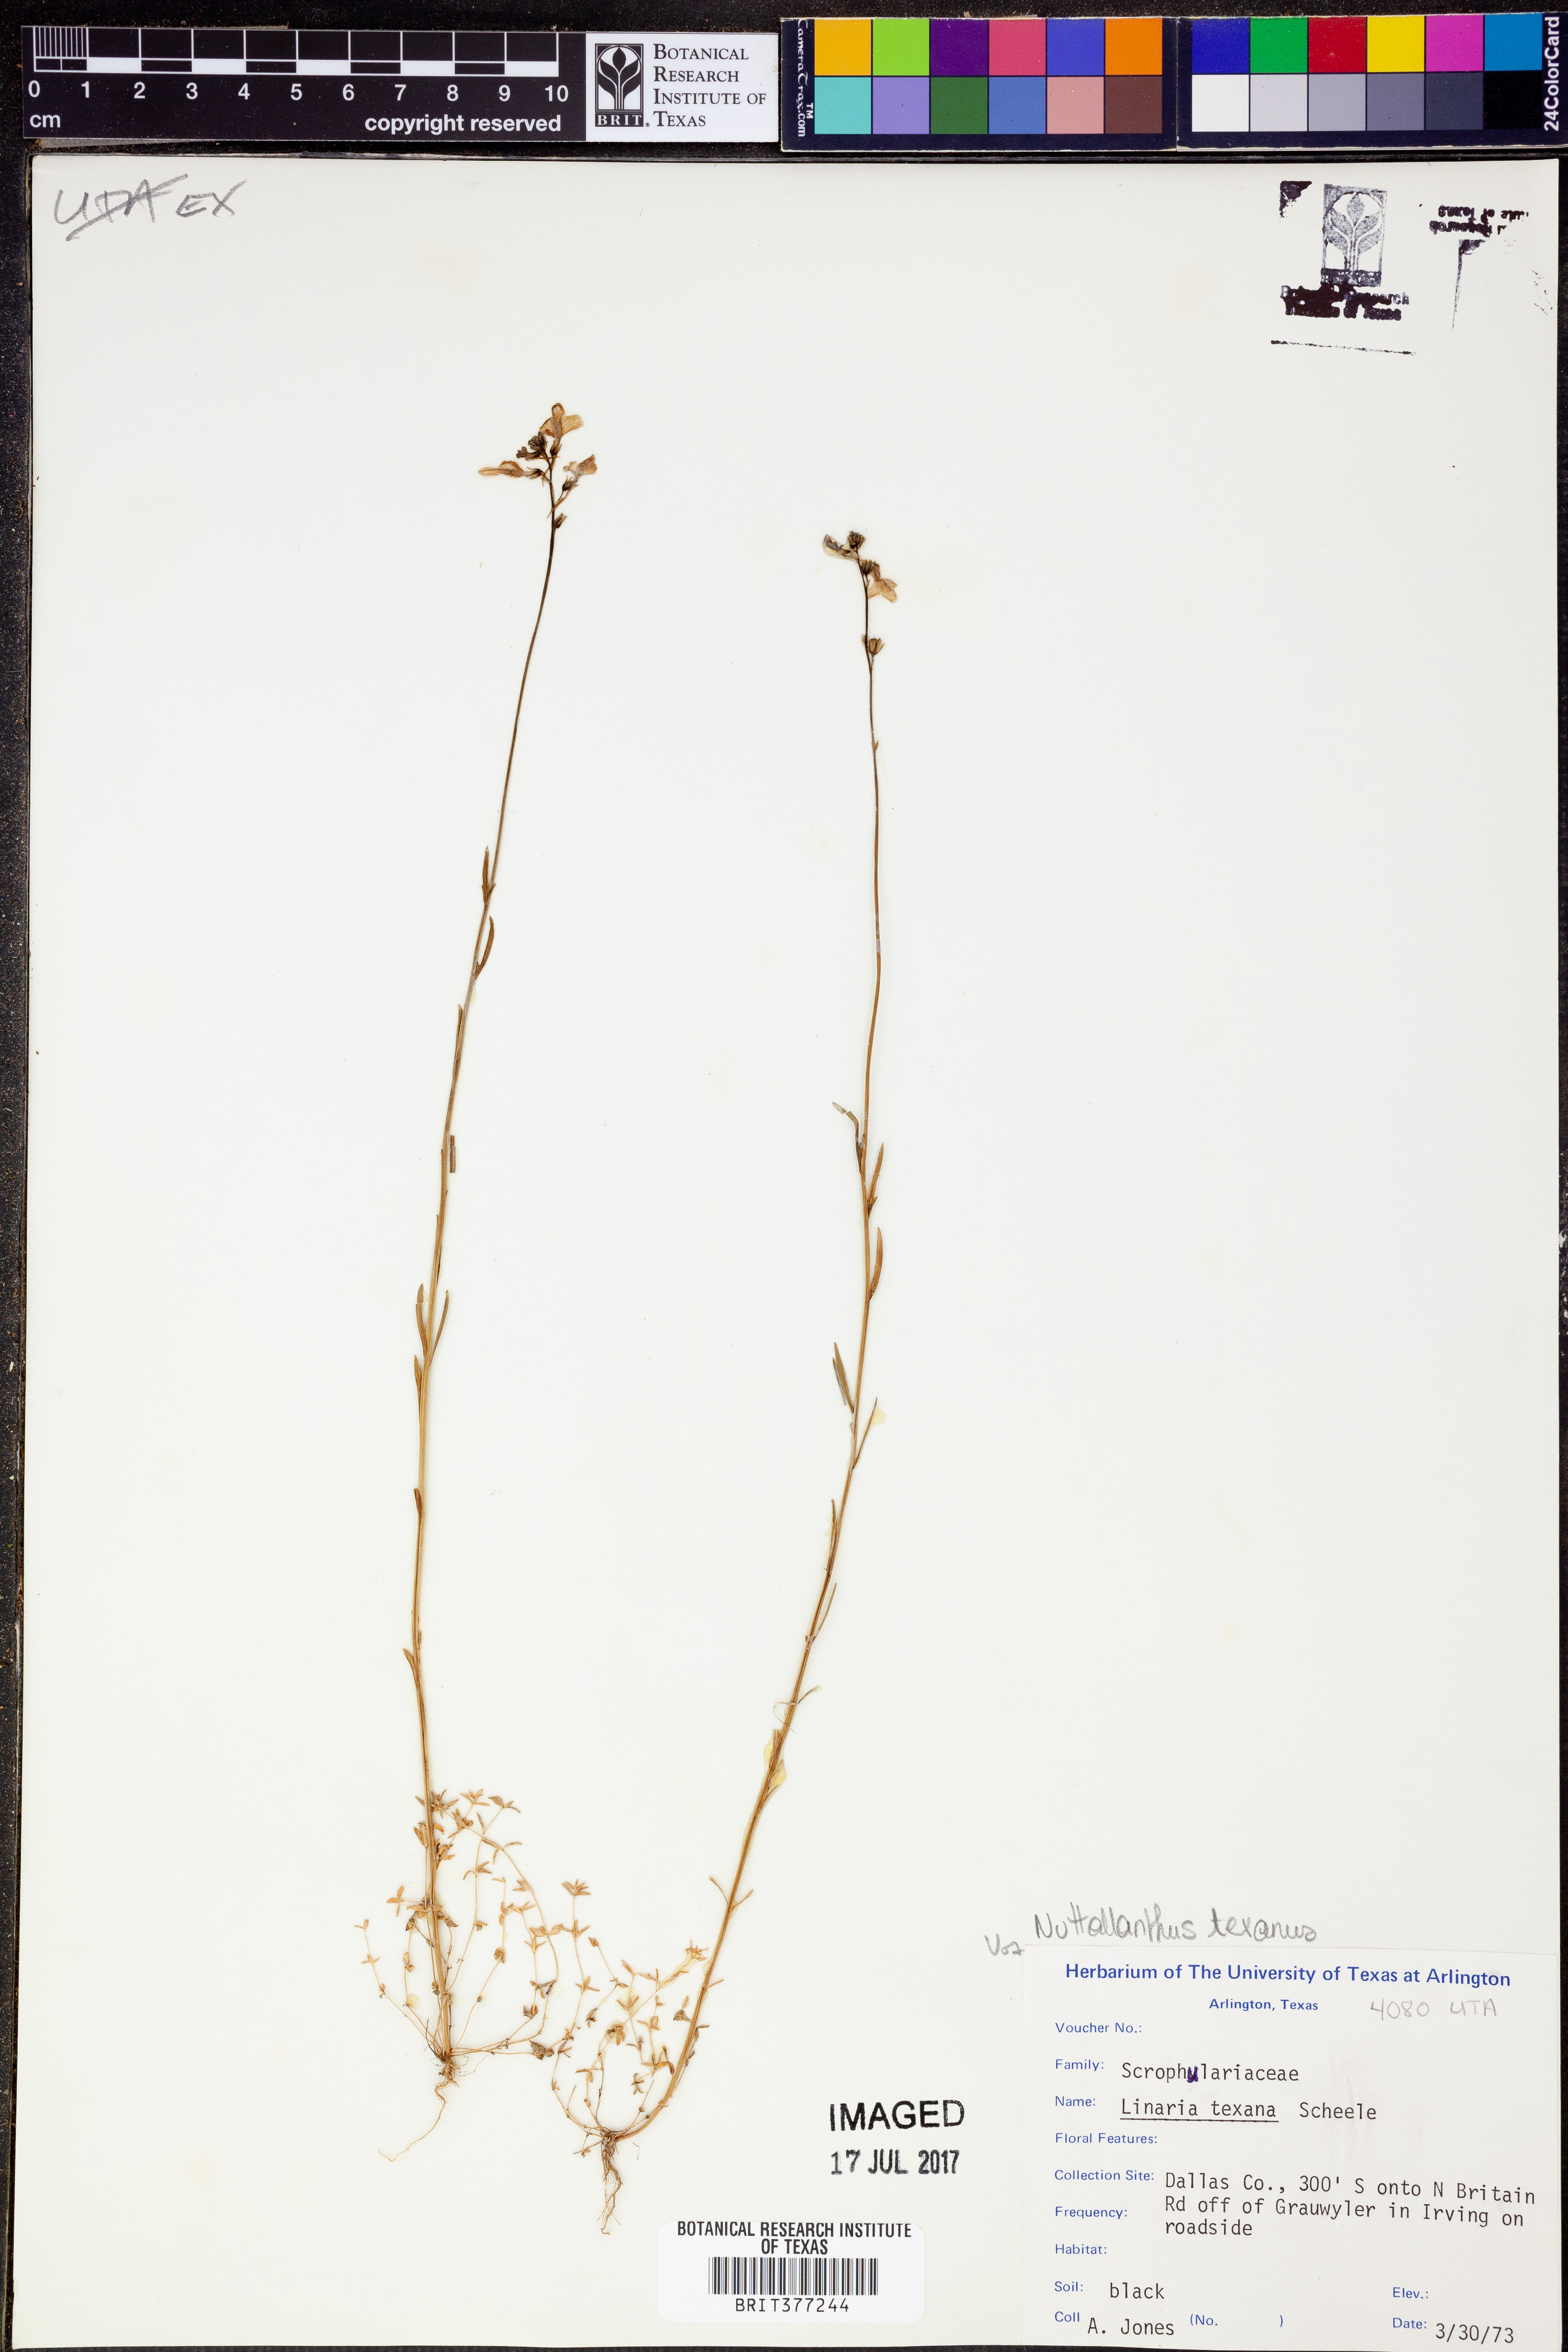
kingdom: Plantae
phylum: Tracheophyta
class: Magnoliopsida
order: Lamiales
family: Plantaginaceae
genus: Nuttallanthus
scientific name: Nuttallanthus texanus
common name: Texas toadflax
